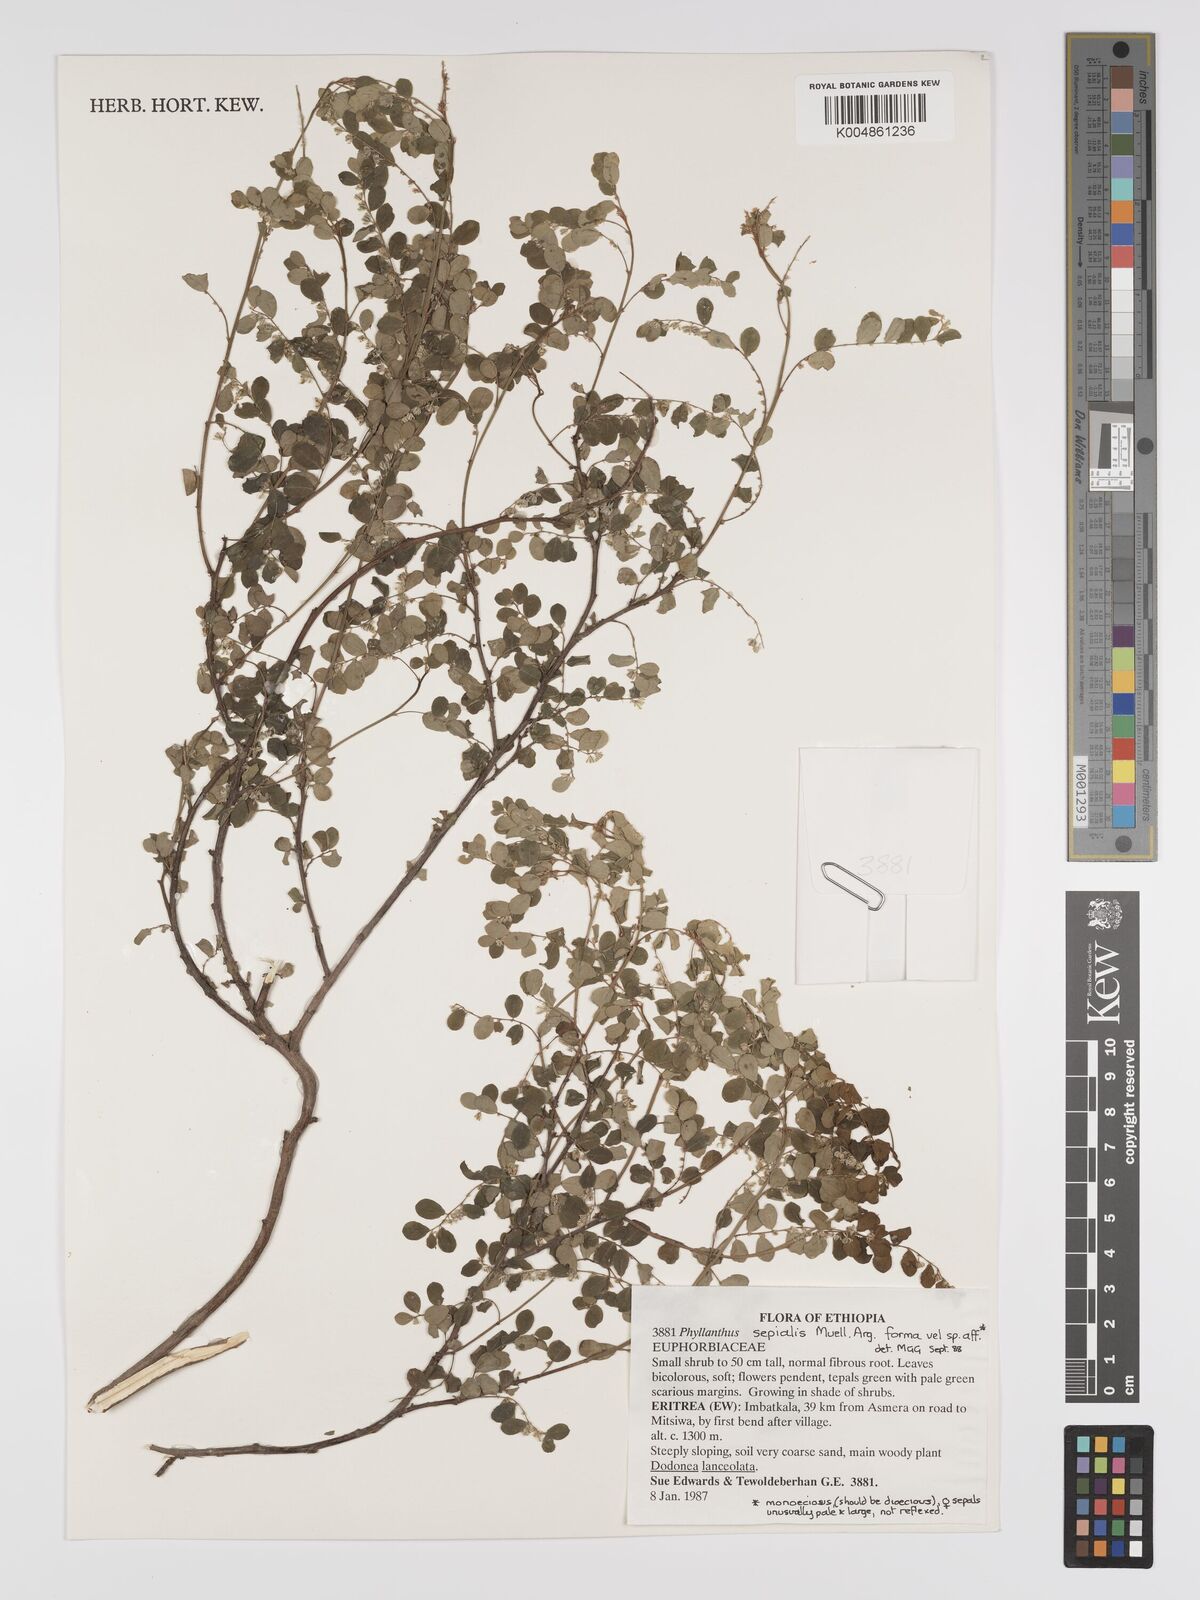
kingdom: Plantae
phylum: Tracheophyta
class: Magnoliopsida
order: Malpighiales
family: Phyllanthaceae
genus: Phyllanthus
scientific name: Phyllanthus sepialis
